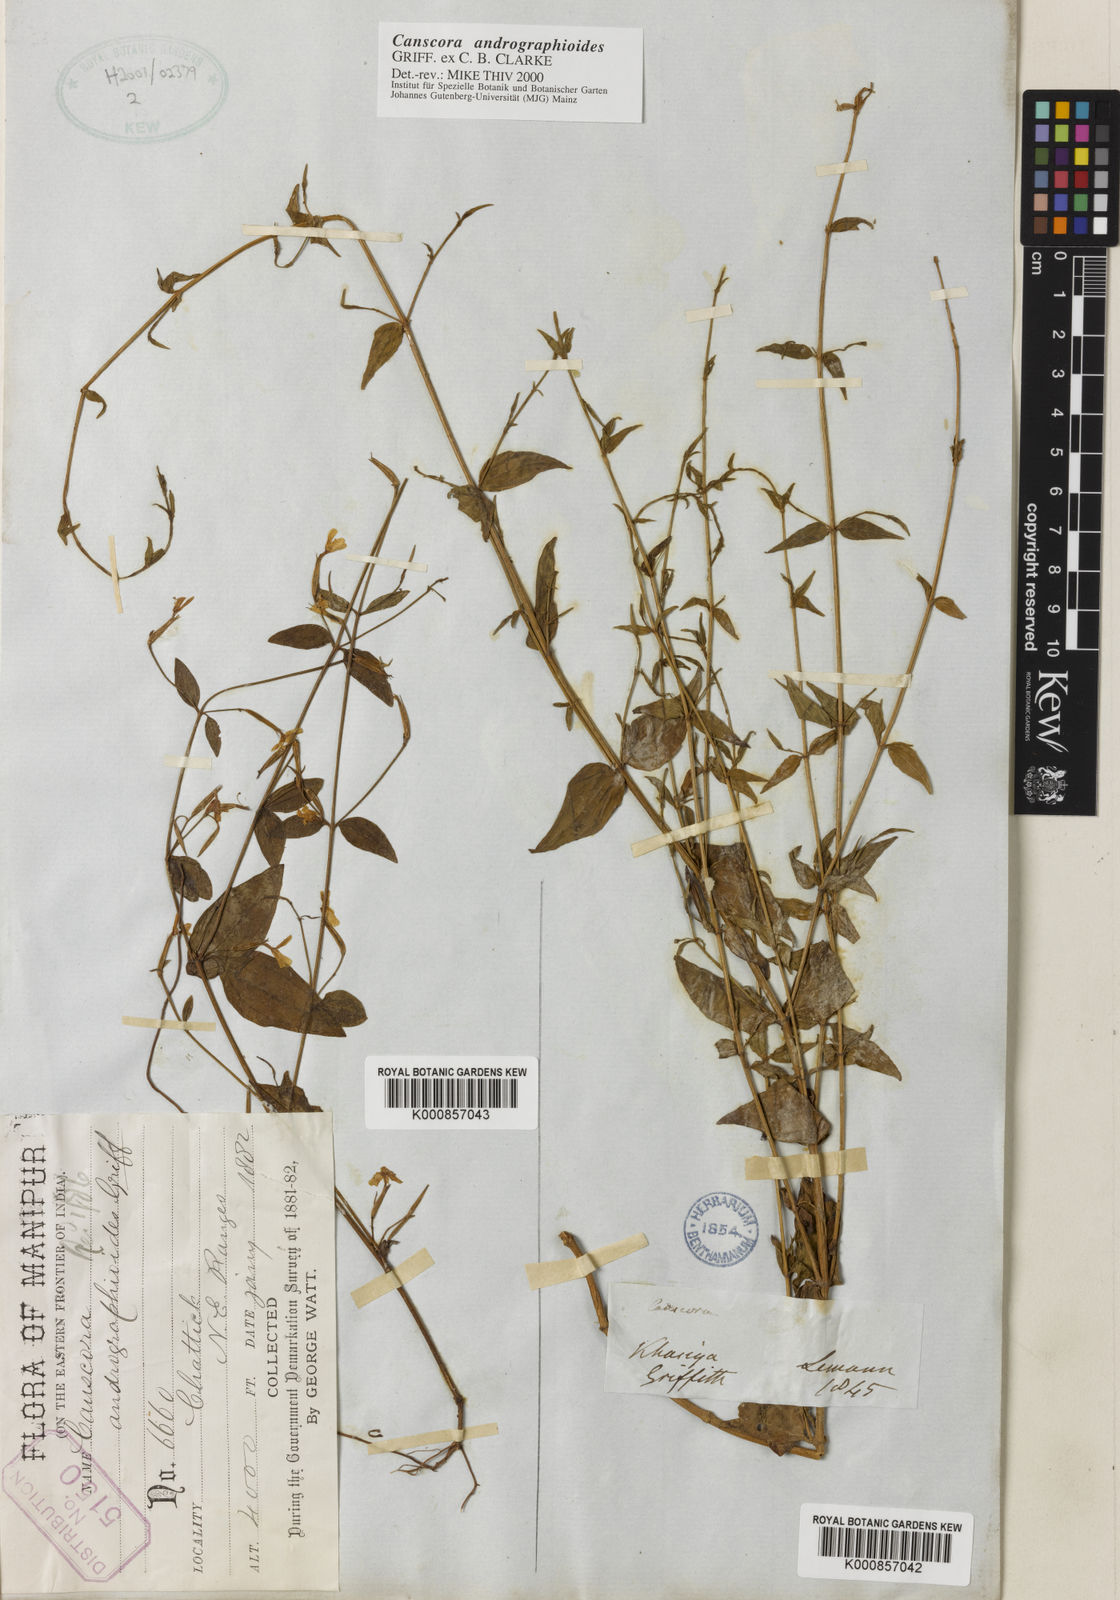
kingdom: Plantae
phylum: Tracheophyta
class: Magnoliopsida
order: Gentianales
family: Gentianaceae
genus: Canscora
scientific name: Canscora andrographioides
